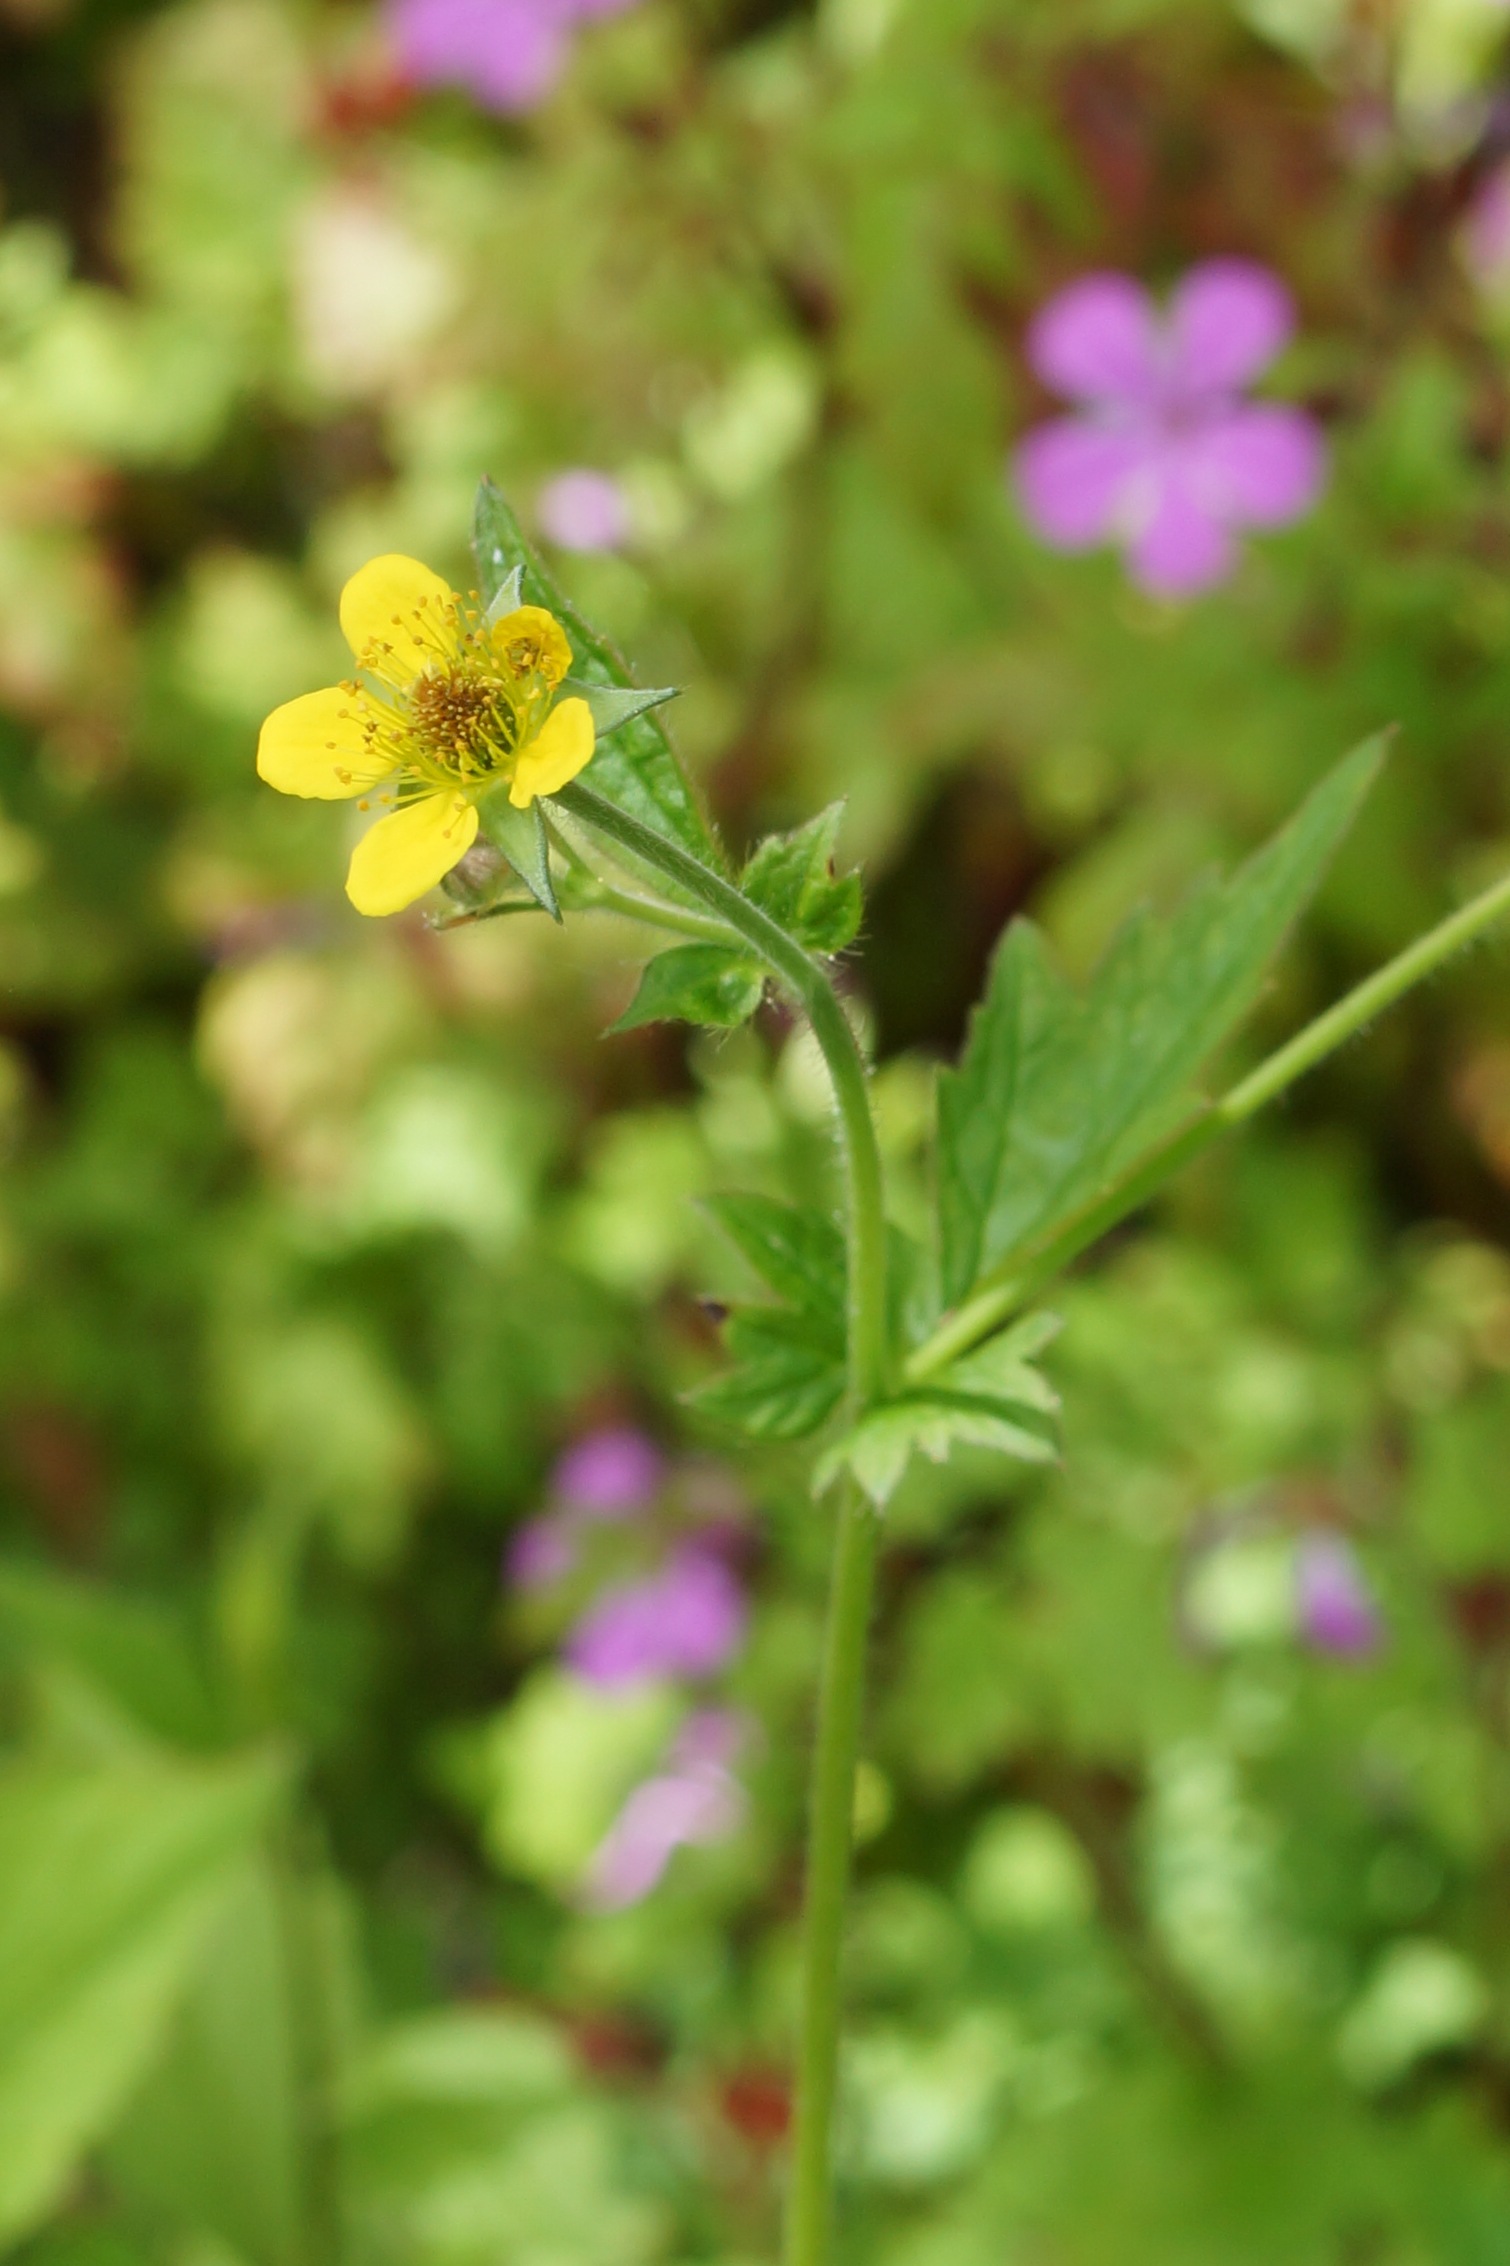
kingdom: Plantae
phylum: Tracheophyta
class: Magnoliopsida
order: Rosales
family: Rosaceae
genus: Geum
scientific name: Geum urbanum
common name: Feber-nellikerod
